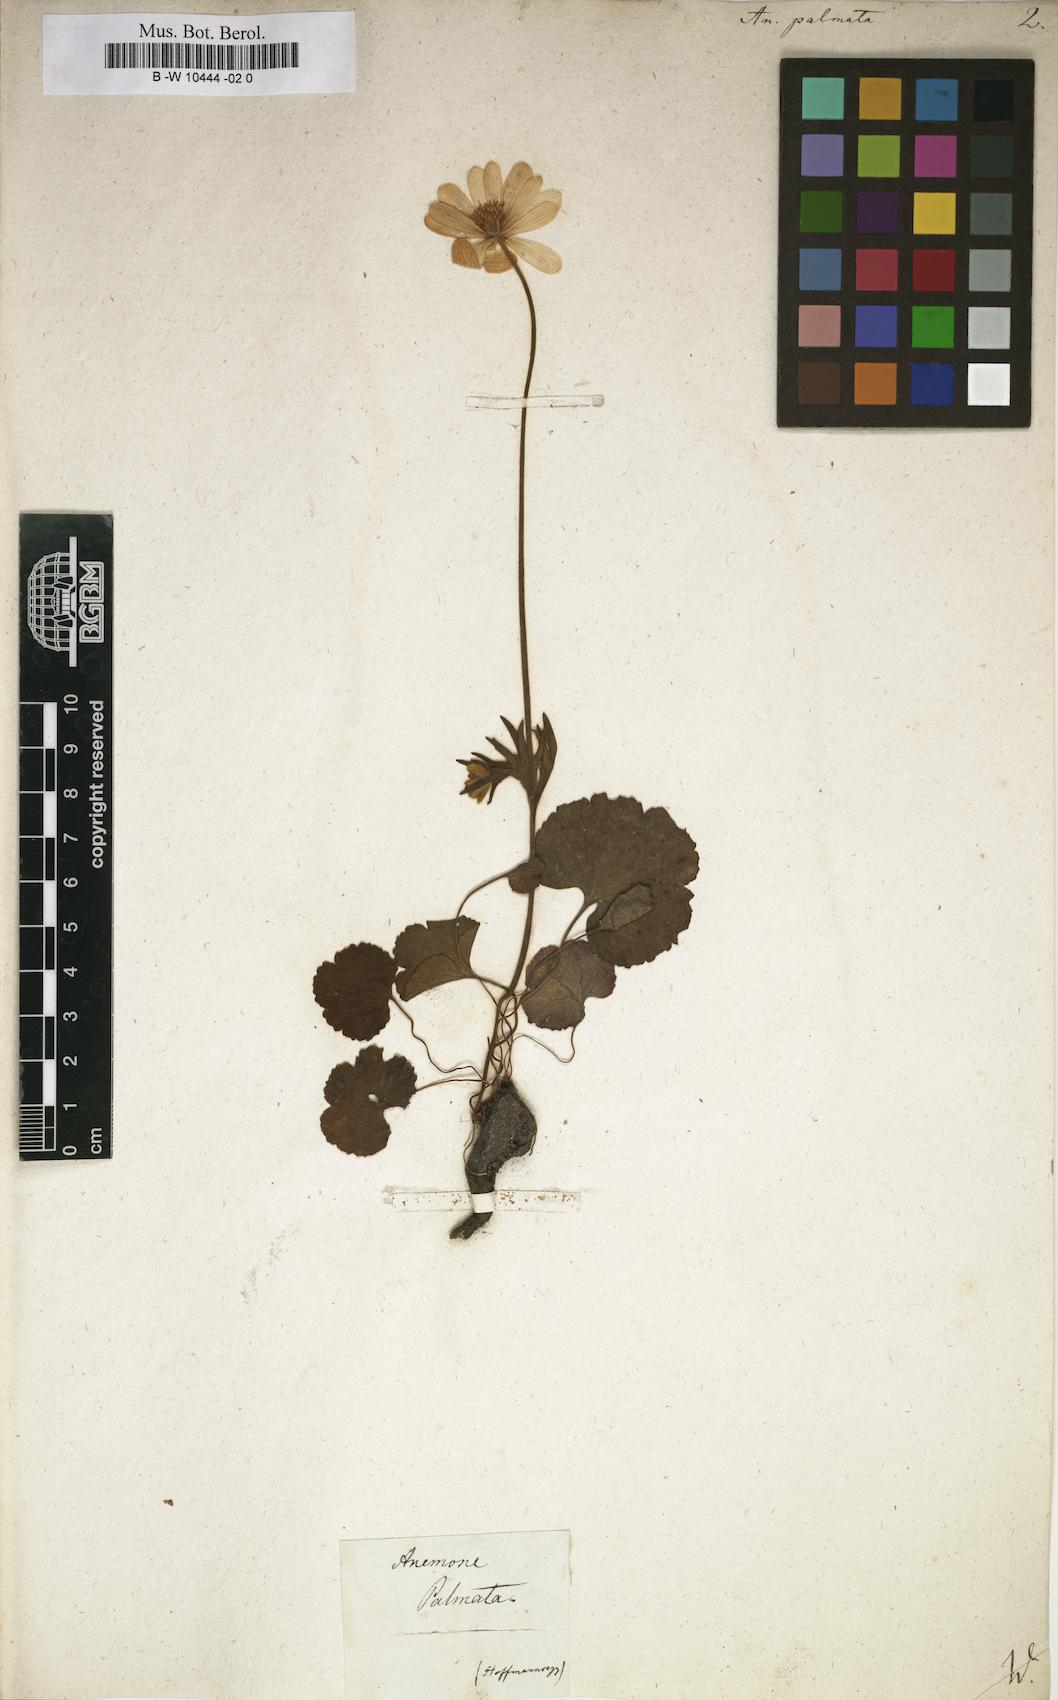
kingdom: Plantae
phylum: Tracheophyta
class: Magnoliopsida
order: Ranunculales
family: Ranunculaceae
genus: Anemone
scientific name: Anemone palmata
